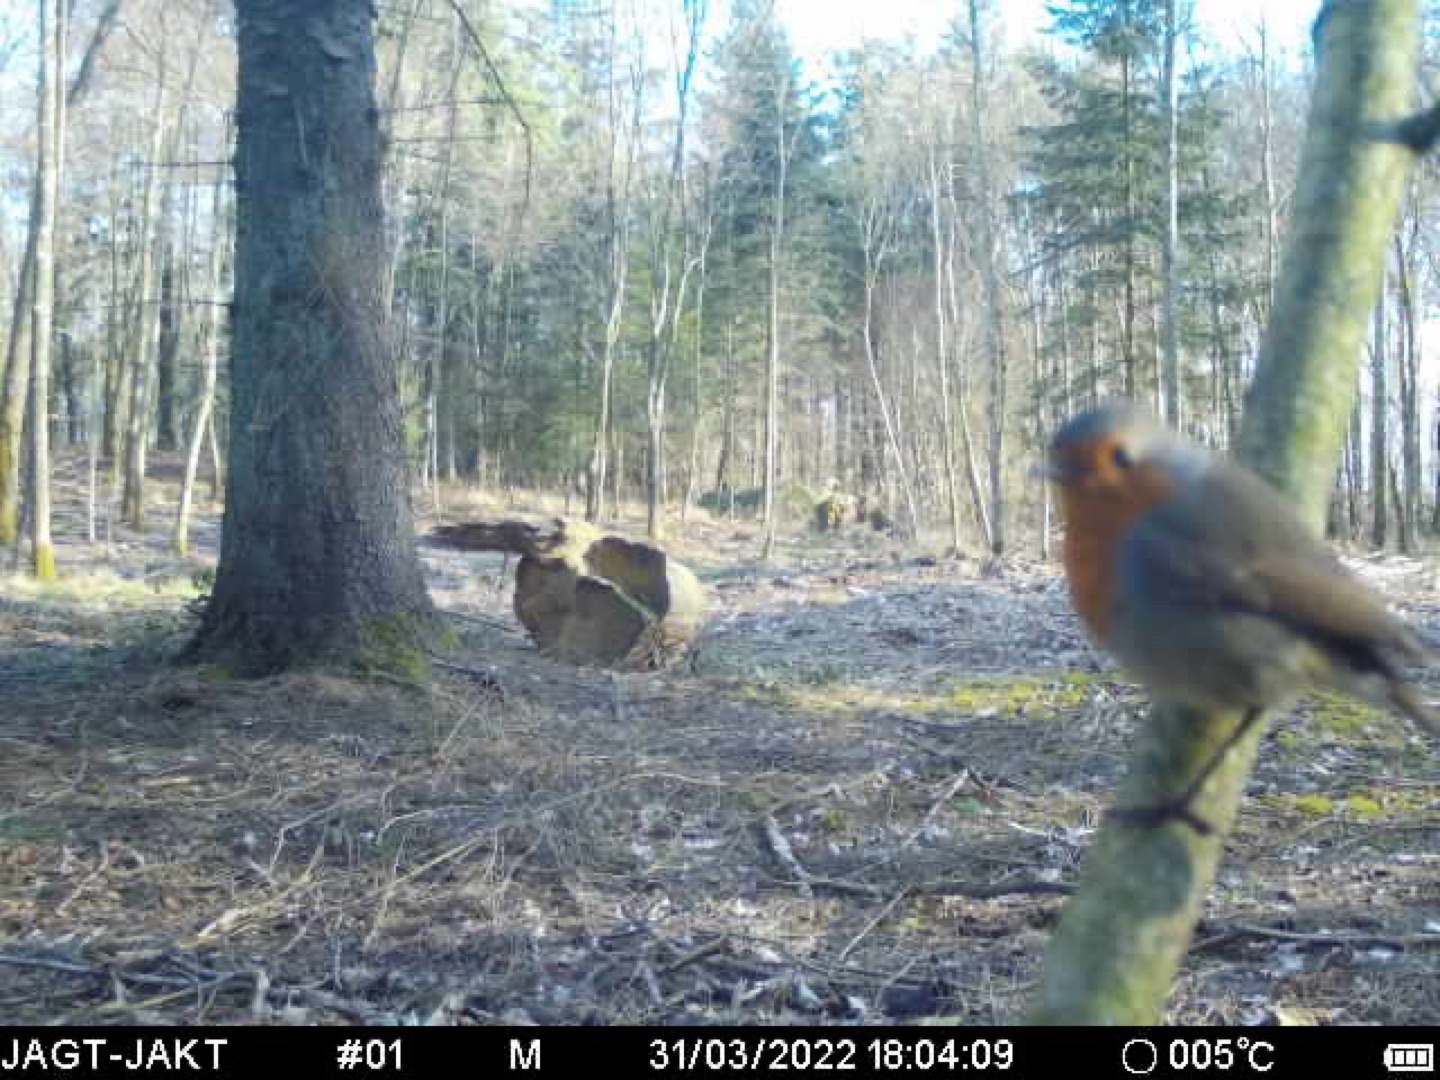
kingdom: Animalia
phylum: Chordata
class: Aves
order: Passeriformes
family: Muscicapidae
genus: Erithacus
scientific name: Erithacus rubecula
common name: Rødhals/rødkælk
